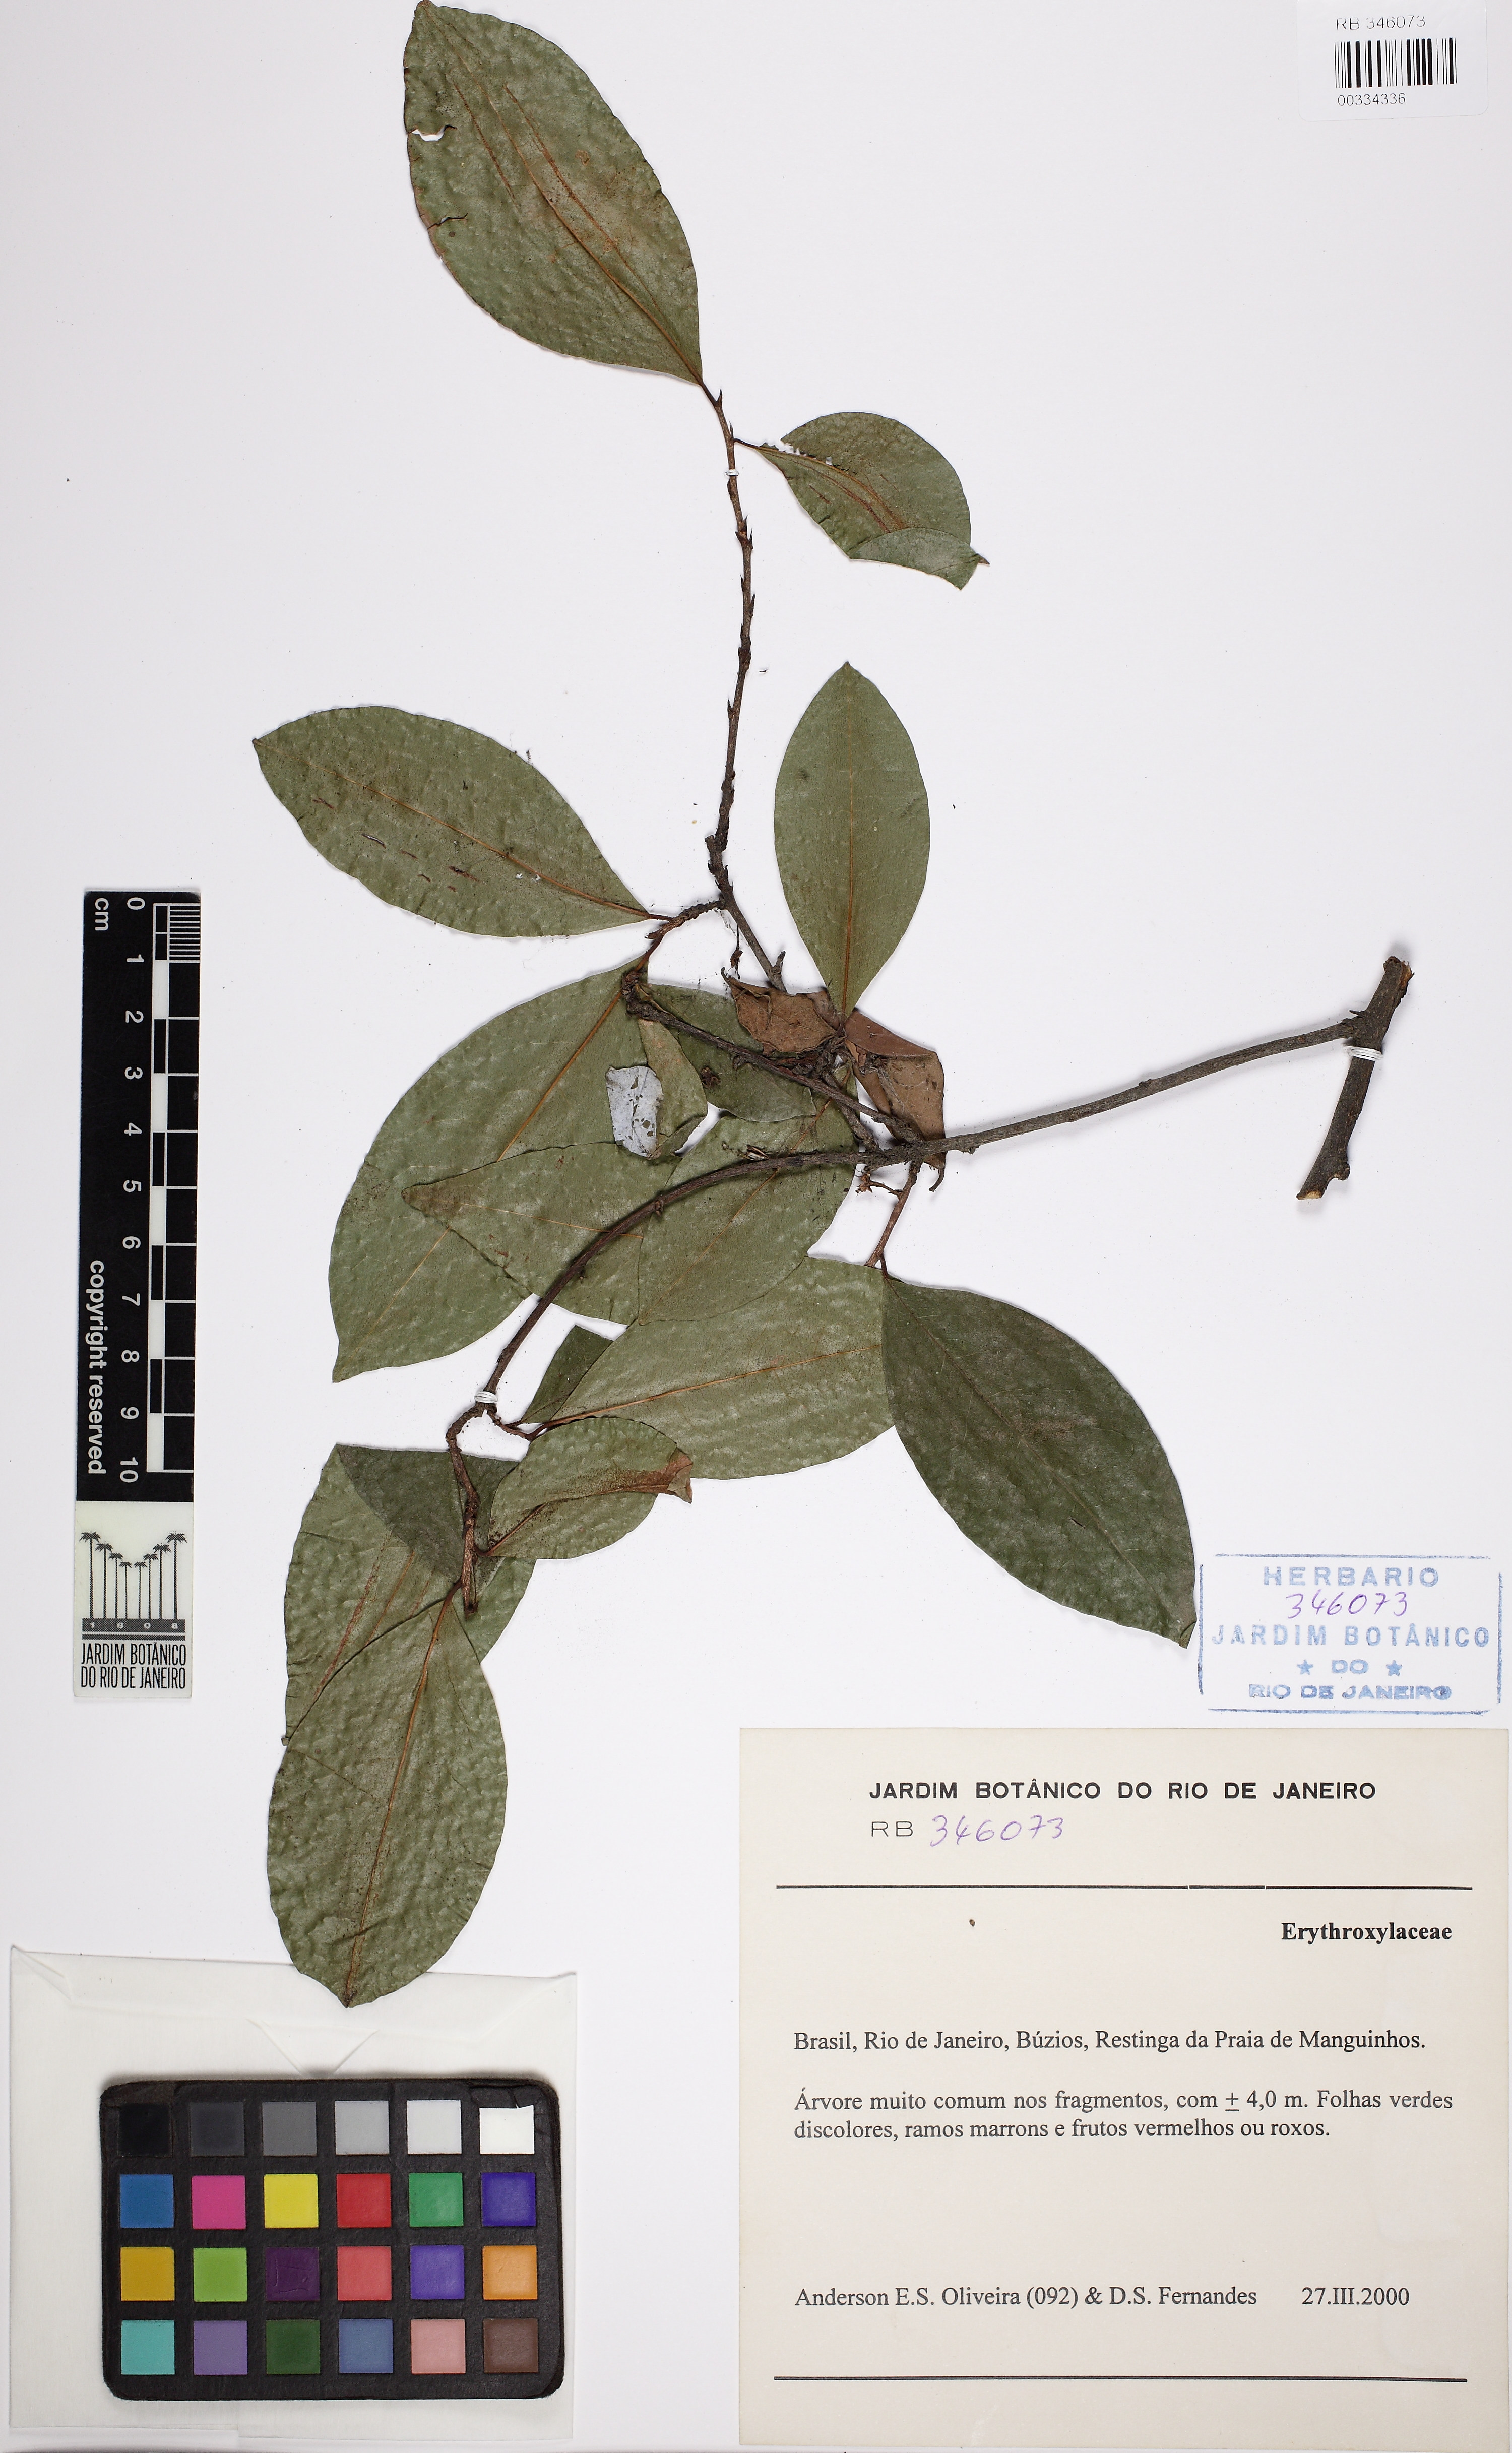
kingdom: Plantae
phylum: Tracheophyta
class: Magnoliopsida
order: Malpighiales
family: Erythroxylaceae
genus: Erythroxylum
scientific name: Erythroxylum passerinum
